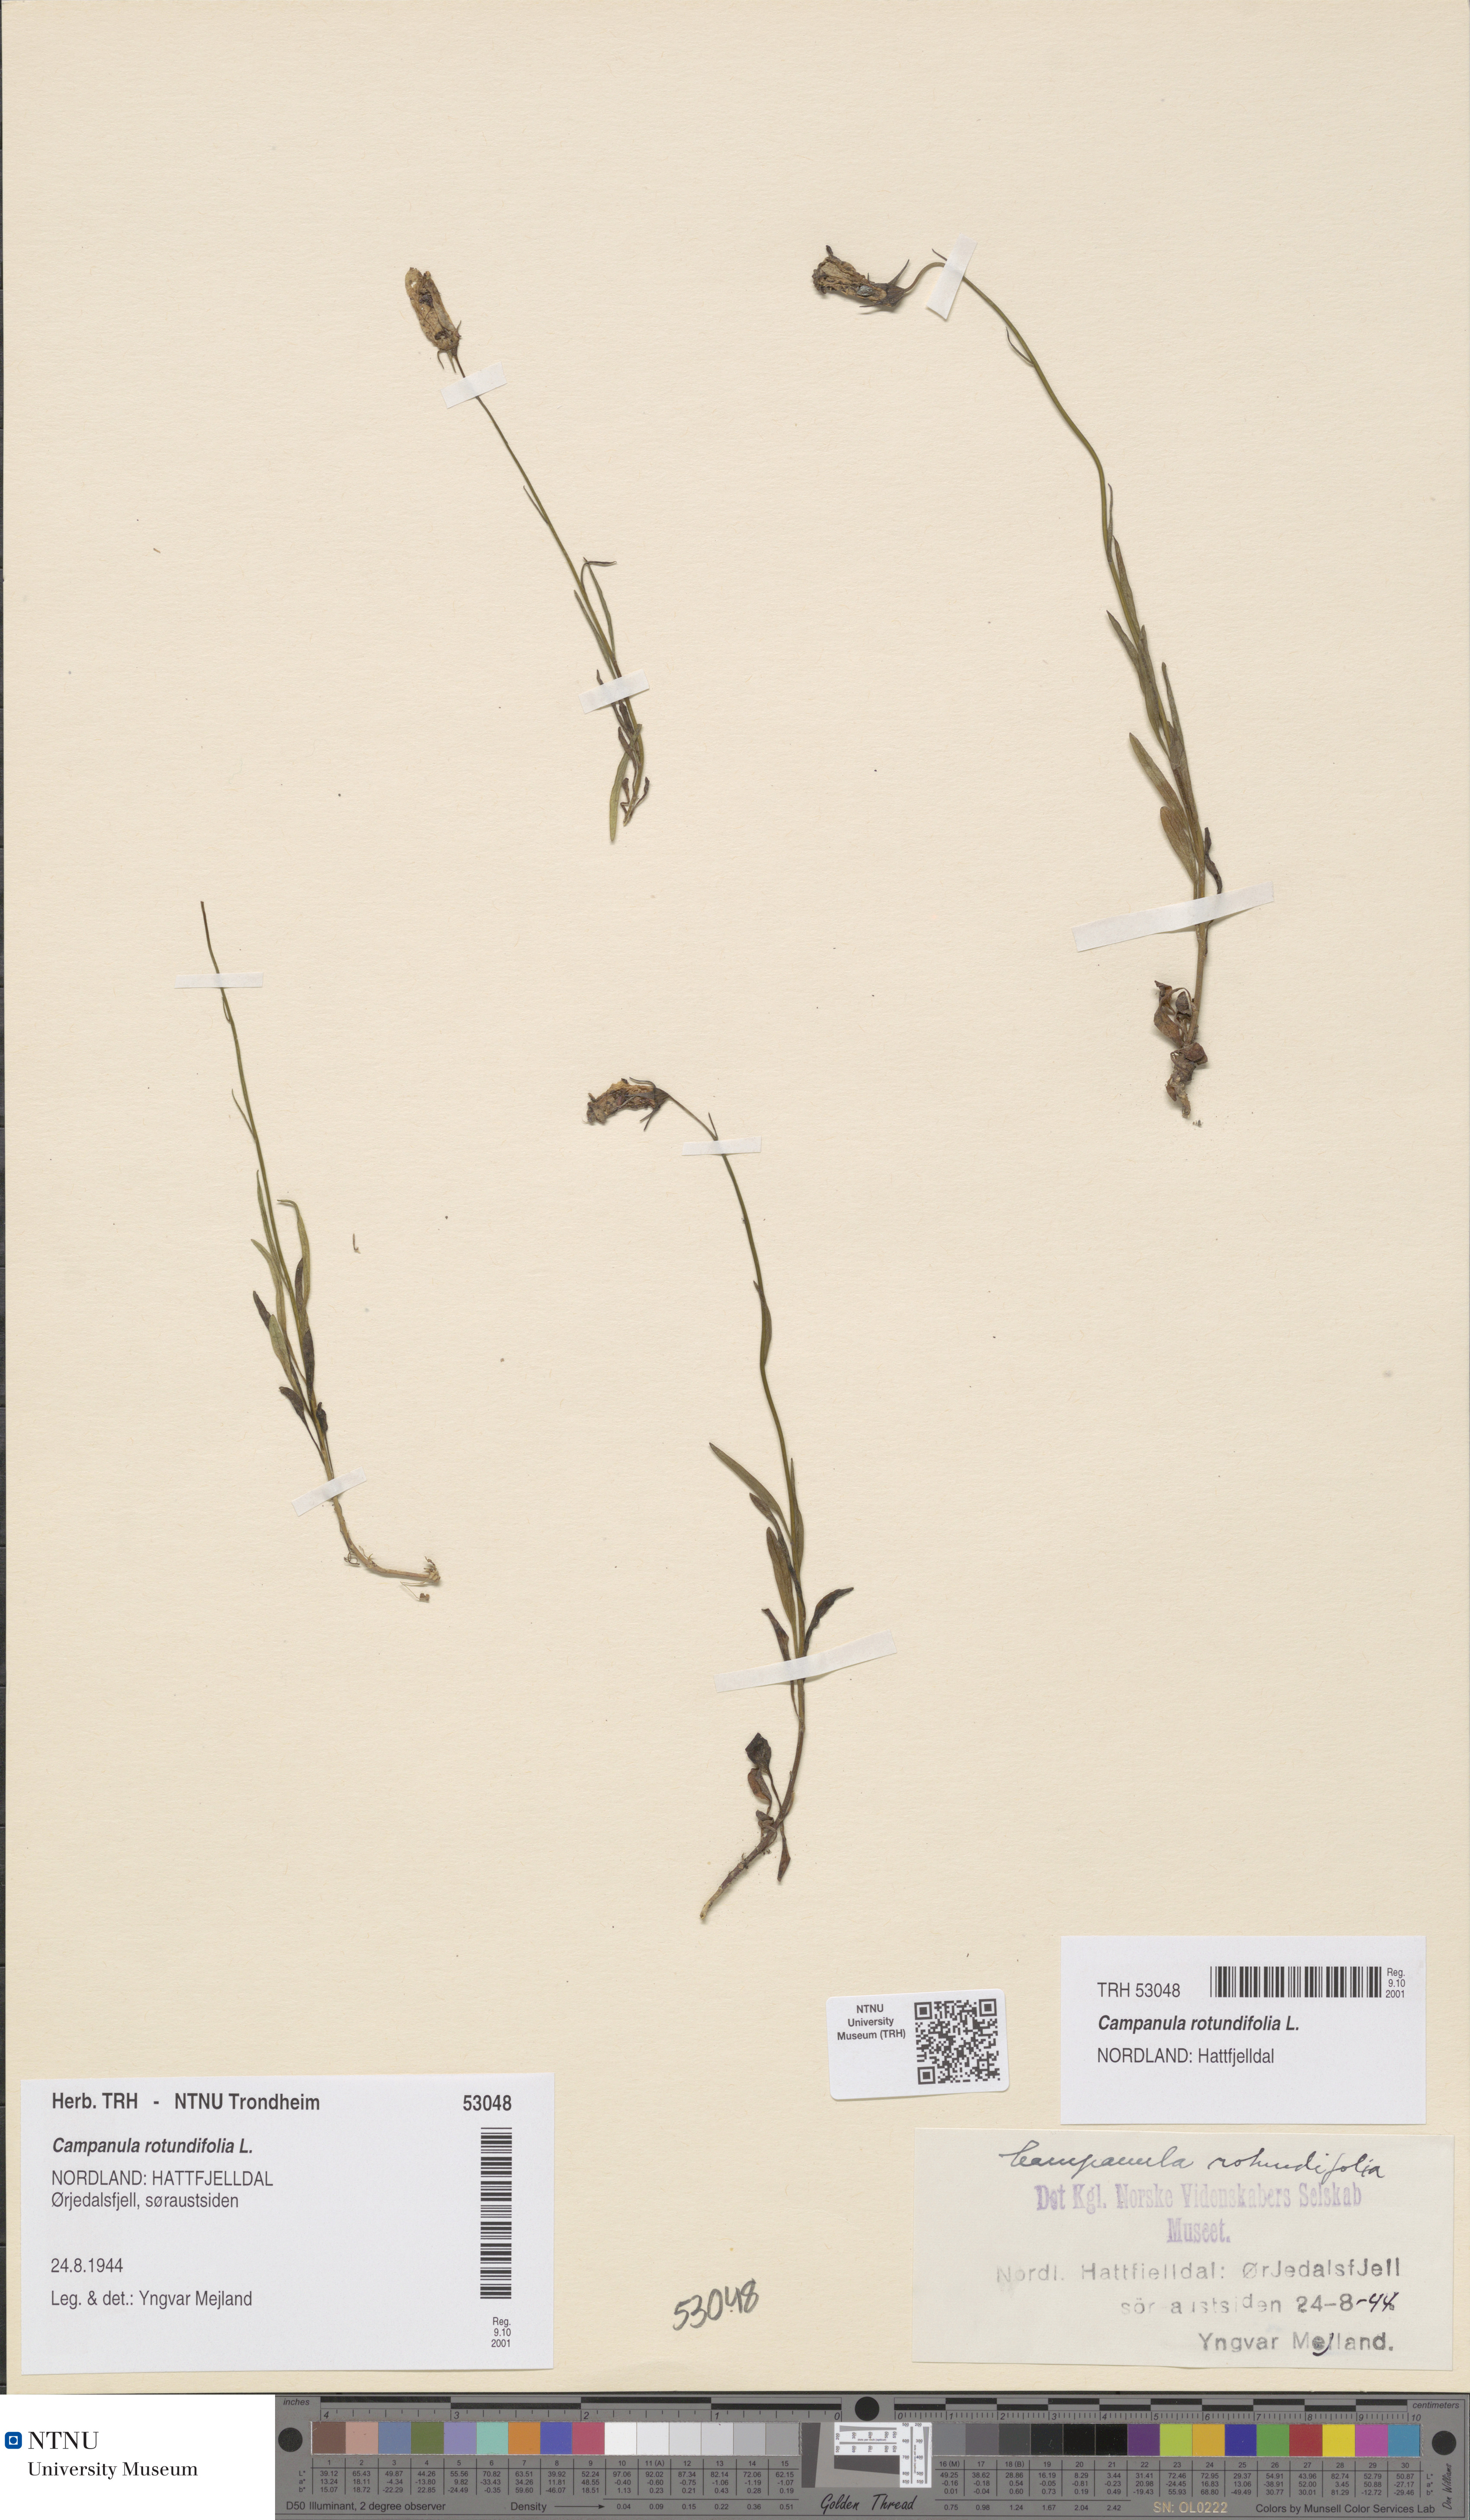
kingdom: Plantae
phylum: Tracheophyta
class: Magnoliopsida
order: Asterales
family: Campanulaceae
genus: Campanula
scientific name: Campanula rotundifolia
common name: Harebell
